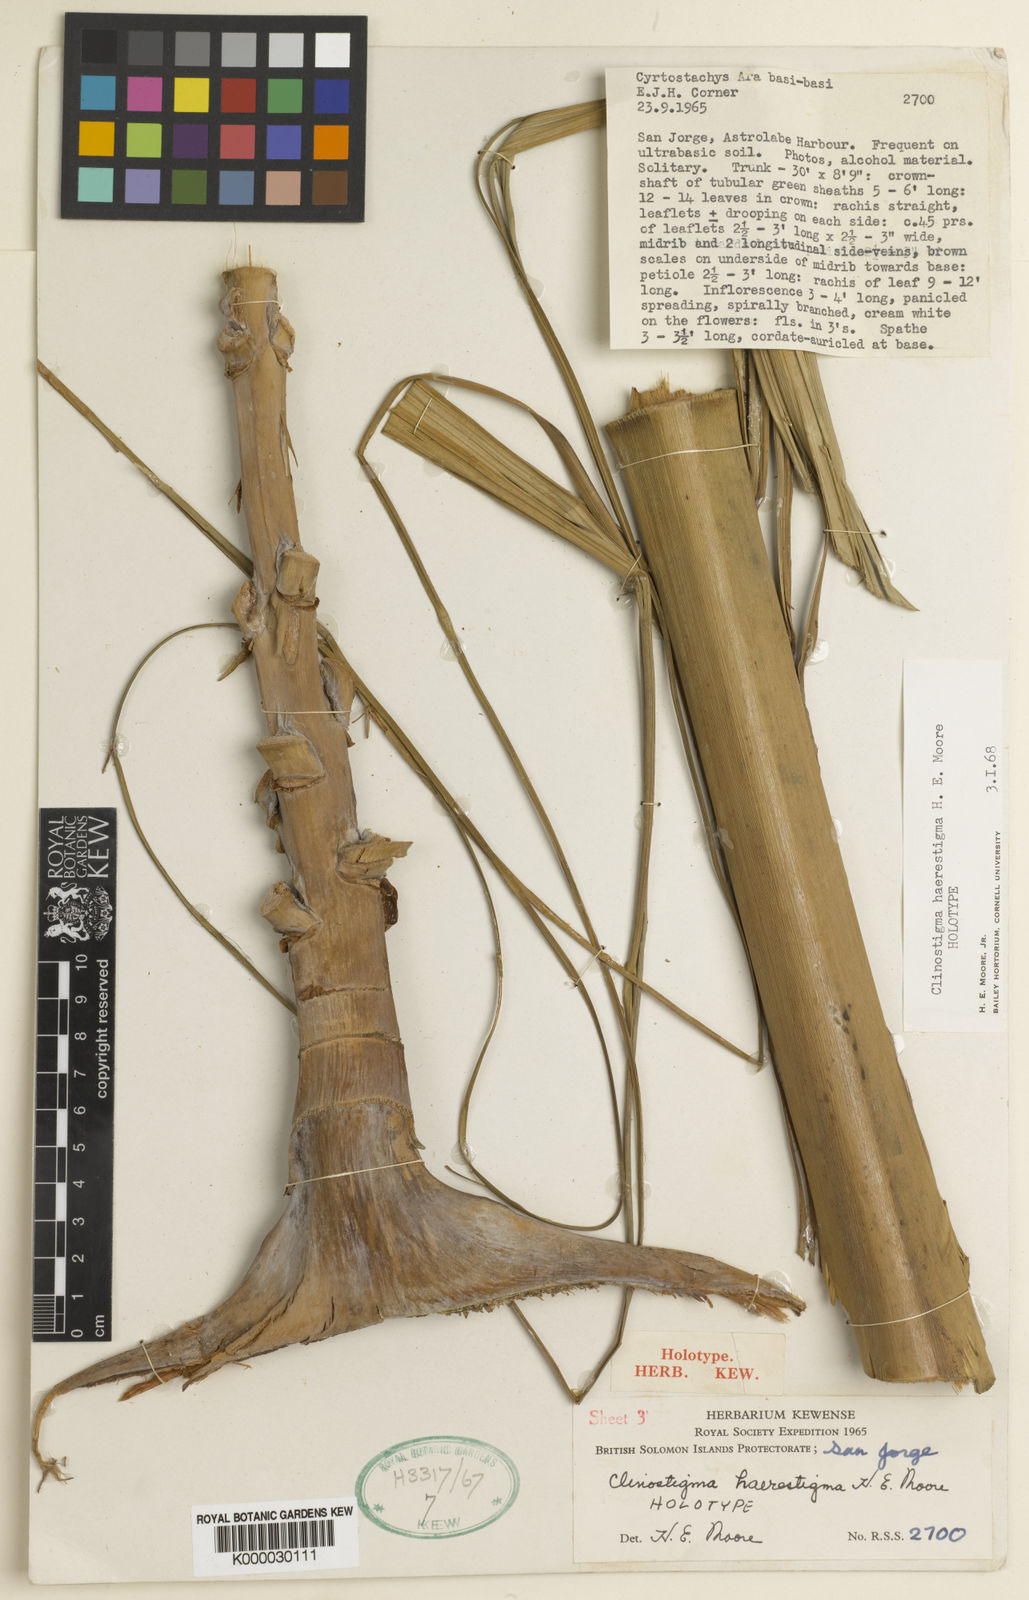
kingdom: Plantae
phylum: Tracheophyta
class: Liliopsida
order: Arecales
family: Arecaceae
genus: Clinostigma
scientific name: Clinostigma haerestigma
